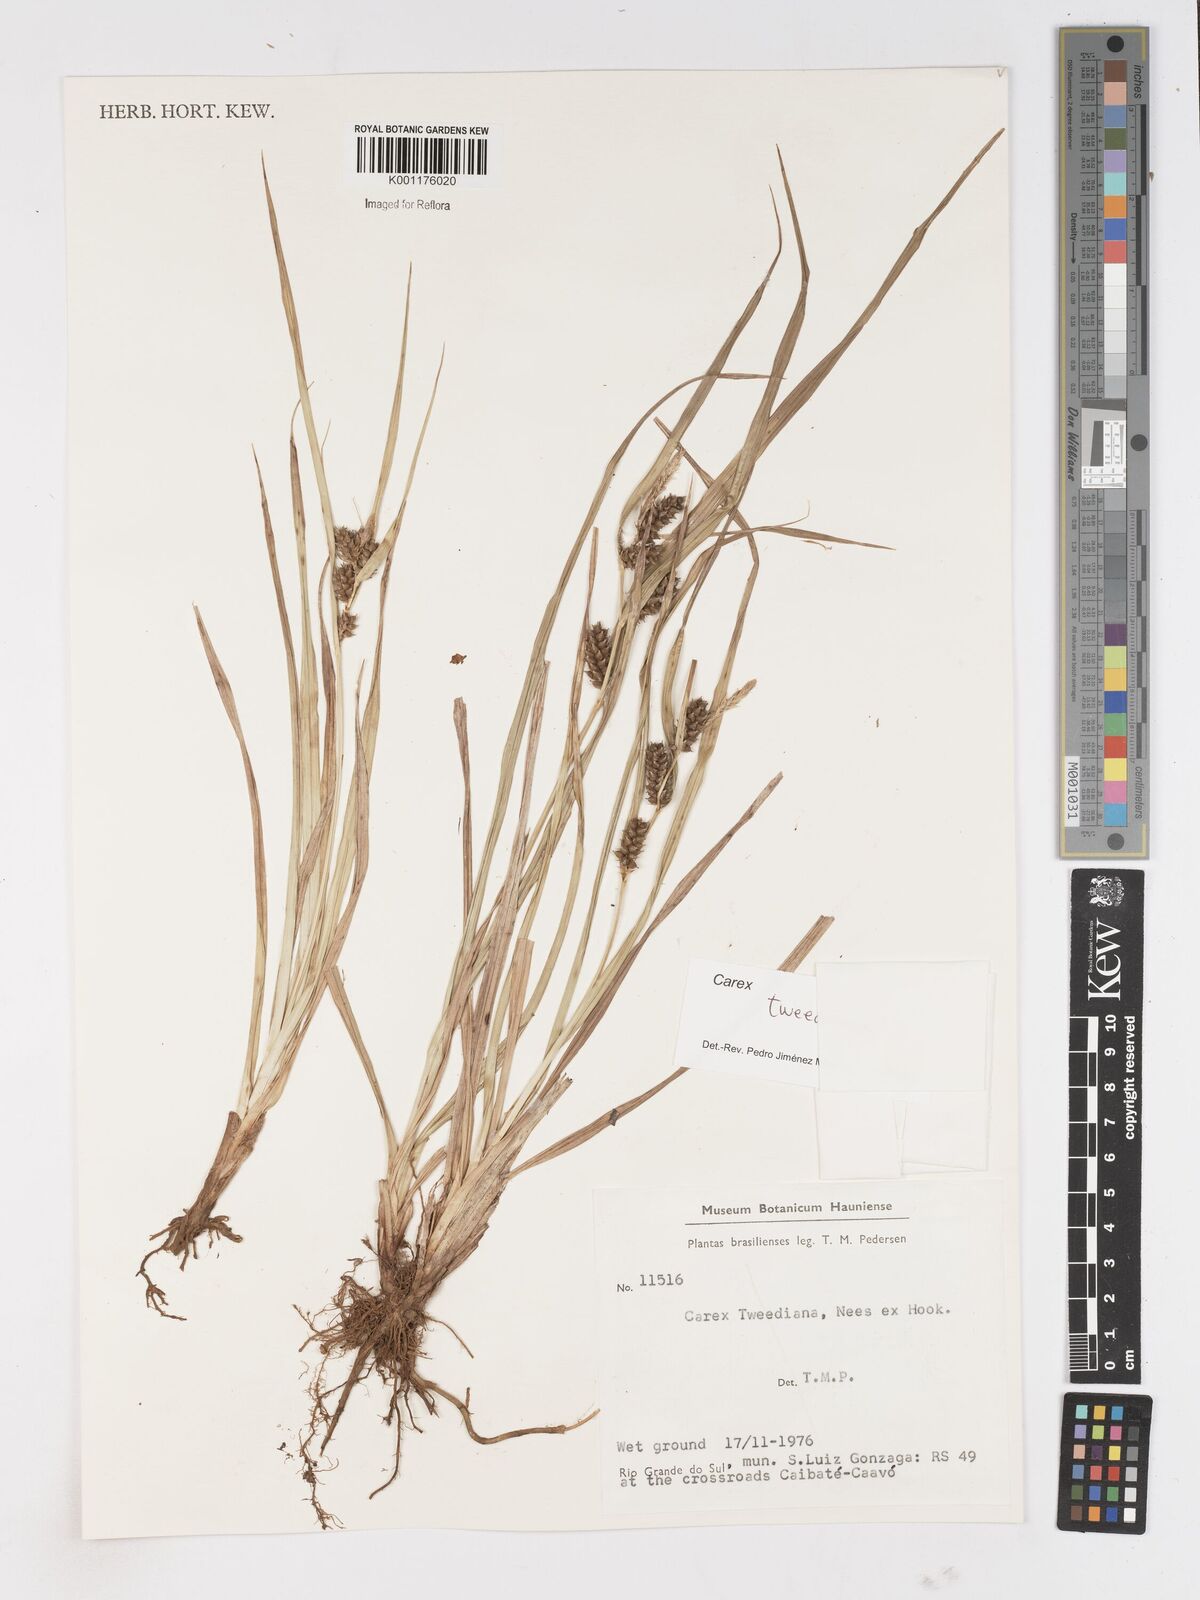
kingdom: Plantae
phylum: Tracheophyta
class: Liliopsida
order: Poales
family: Cyperaceae
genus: Carex
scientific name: Carex tweedieana
